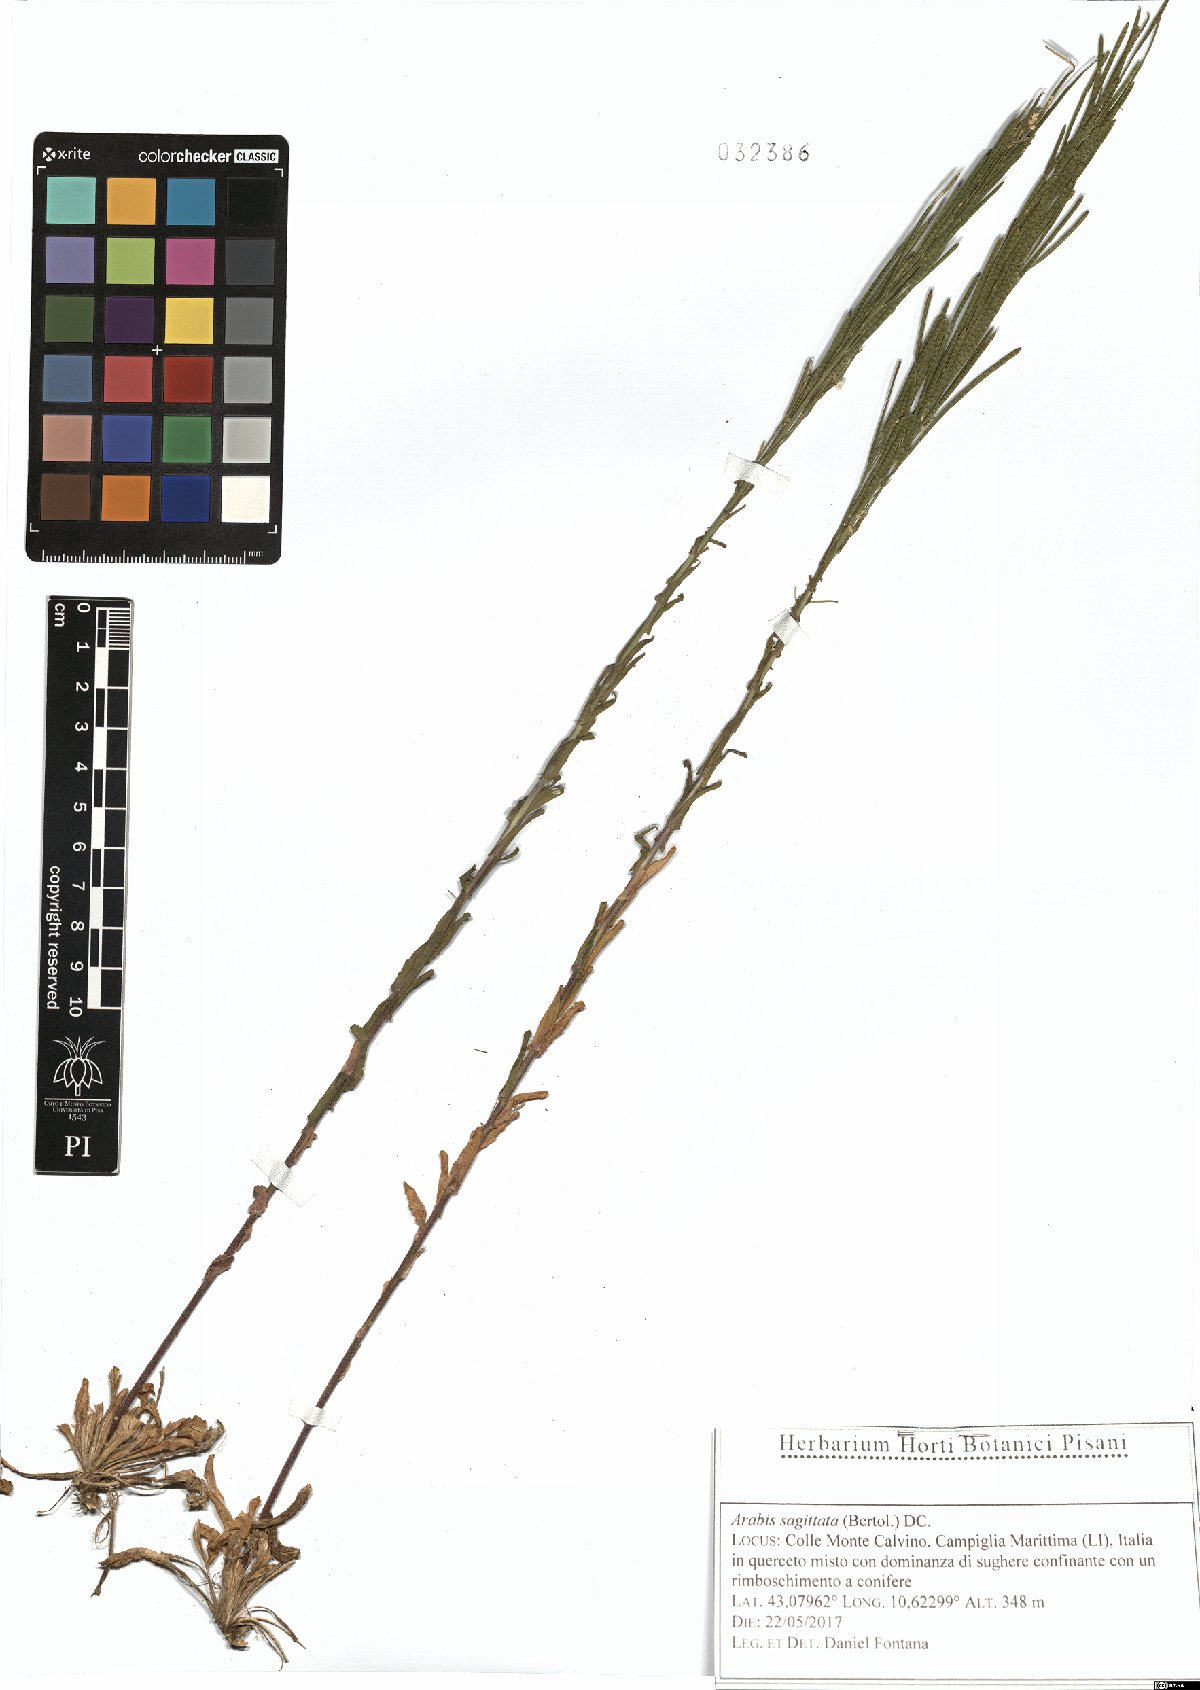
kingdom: Plantae
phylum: Tracheophyta
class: Magnoliopsida
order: Brassicales
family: Brassicaceae
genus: Arabis
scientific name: Arabis sagittata
